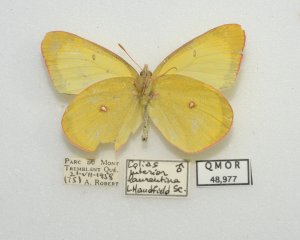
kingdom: Animalia
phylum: Arthropoda
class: Insecta
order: Lepidoptera
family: Pieridae
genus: Colias
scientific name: Colias interior
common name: Pink-edged Sulphur
